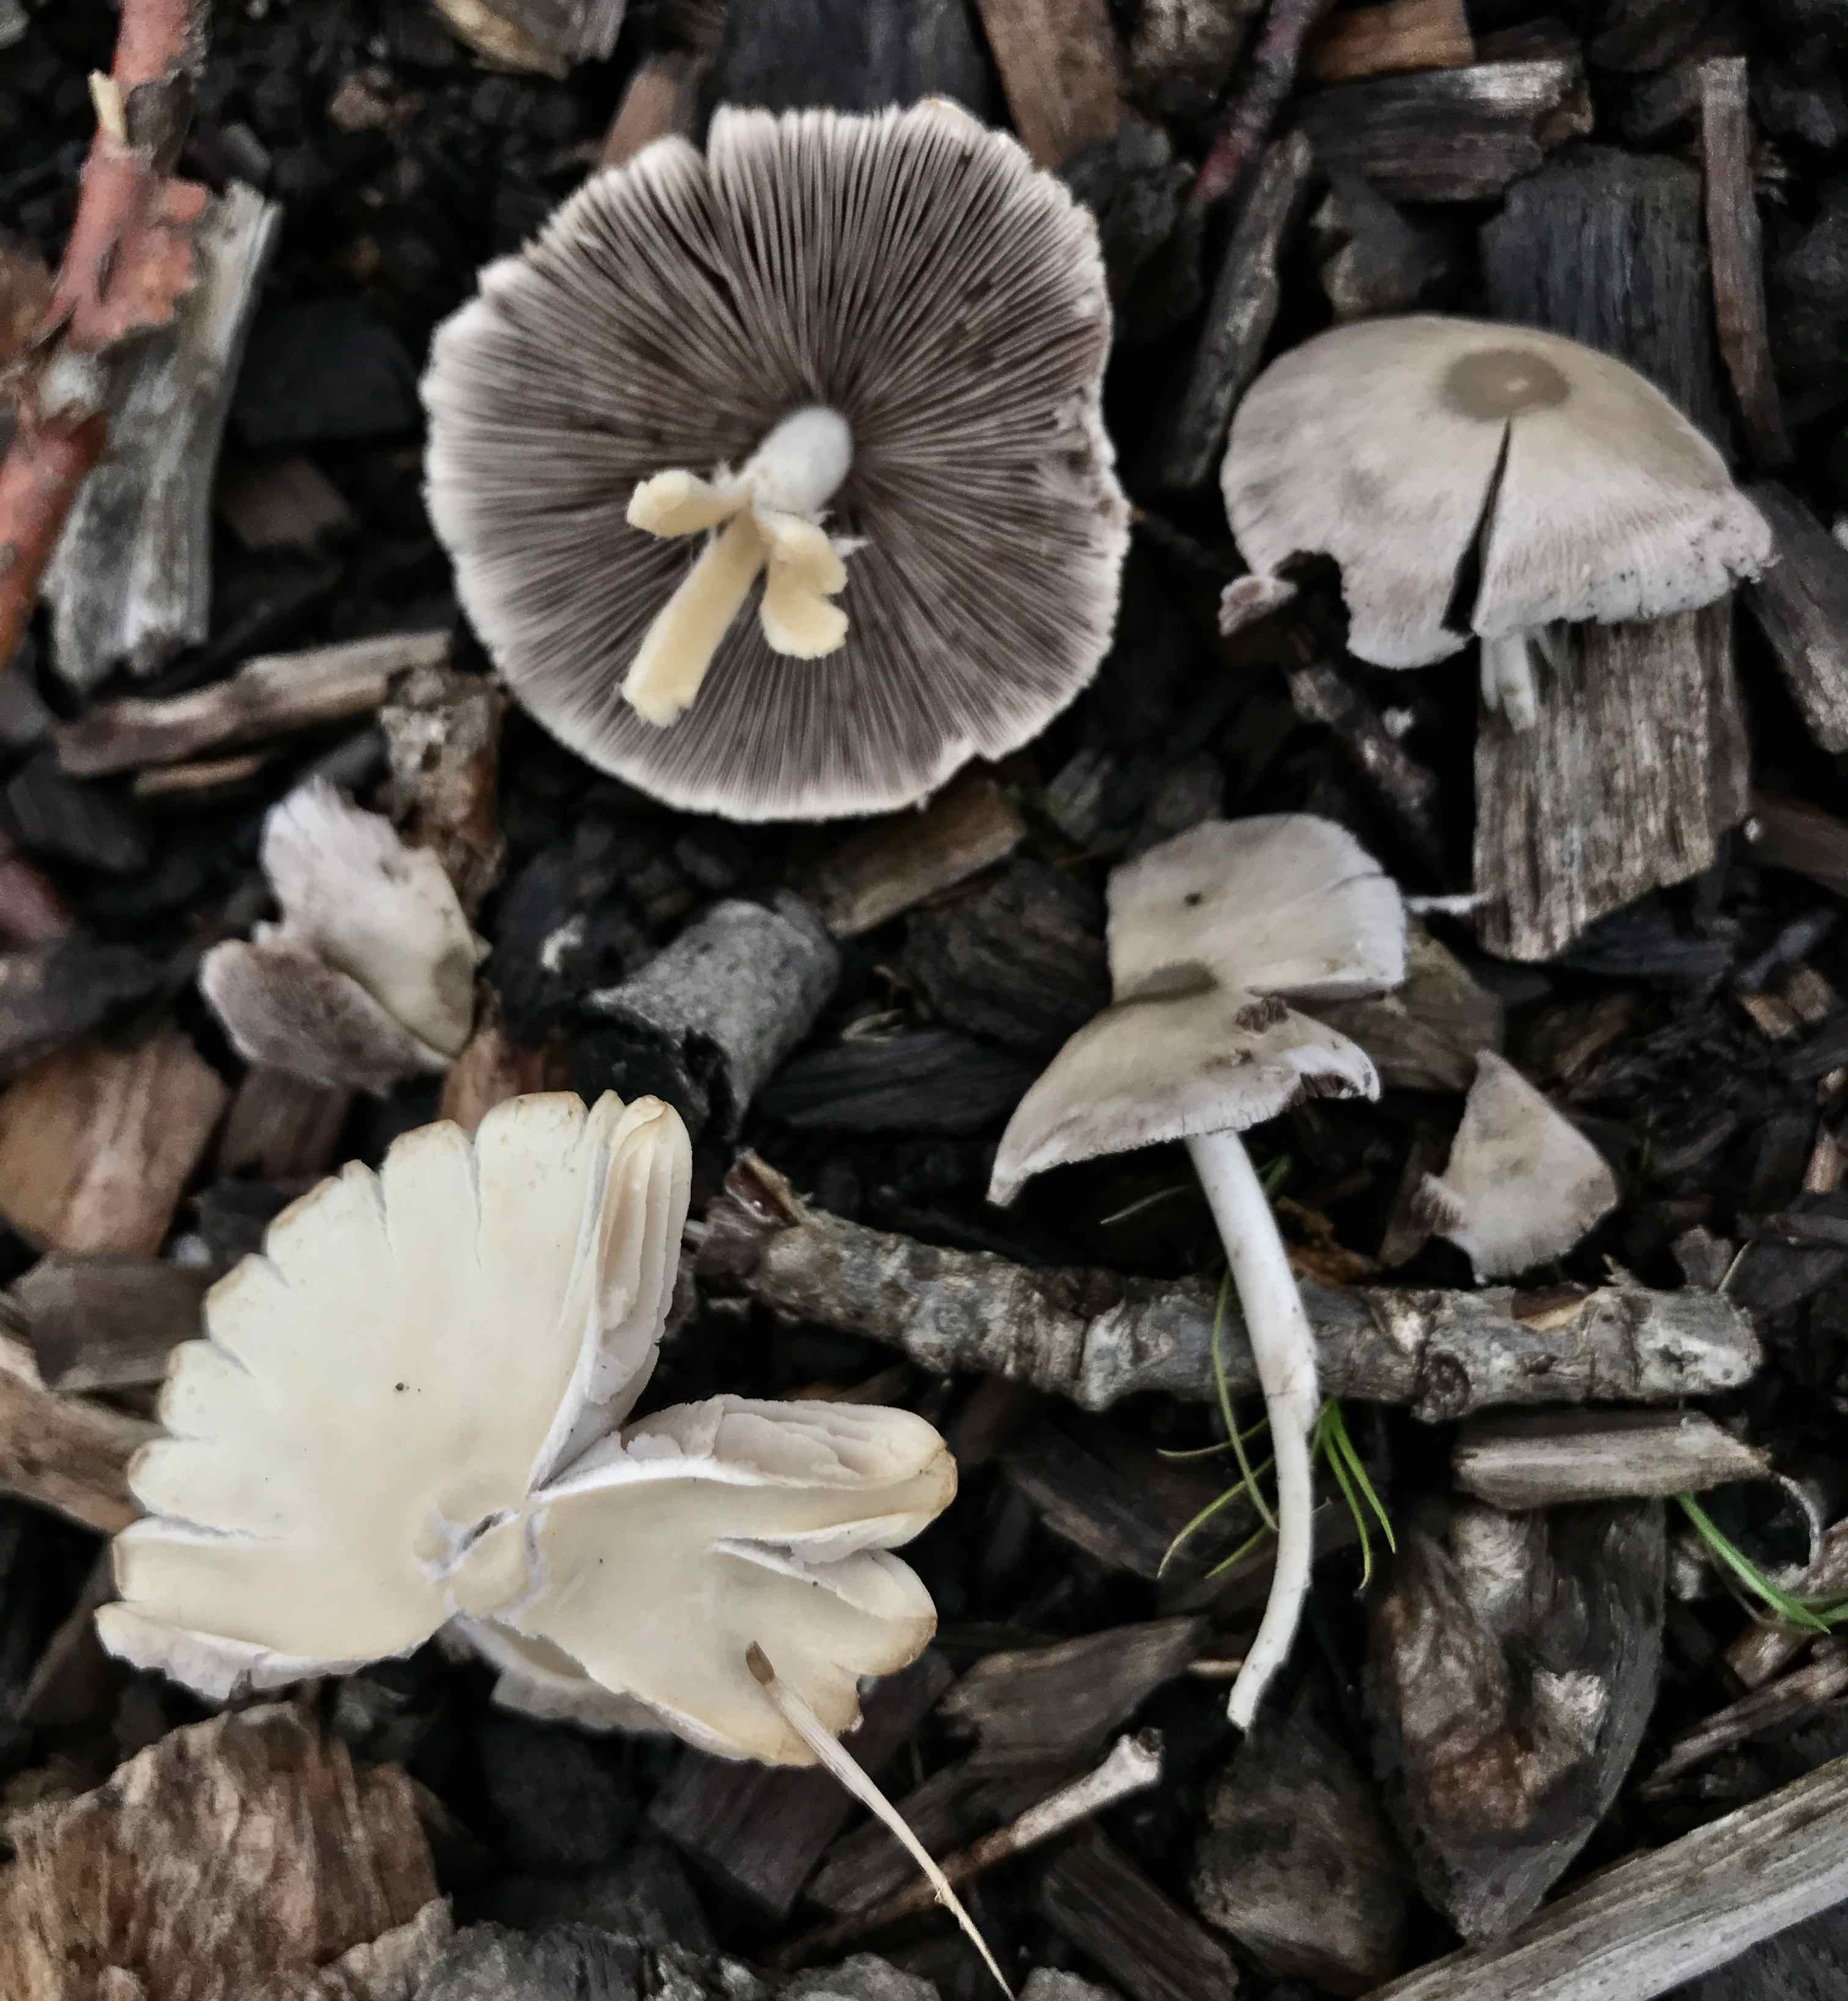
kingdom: Fungi
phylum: Basidiomycota
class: Agaricomycetes
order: Agaricales
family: Psathyrellaceae
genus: Candolleomyces
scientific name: Candolleomyces candolleanus
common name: Candolles mørkhat
